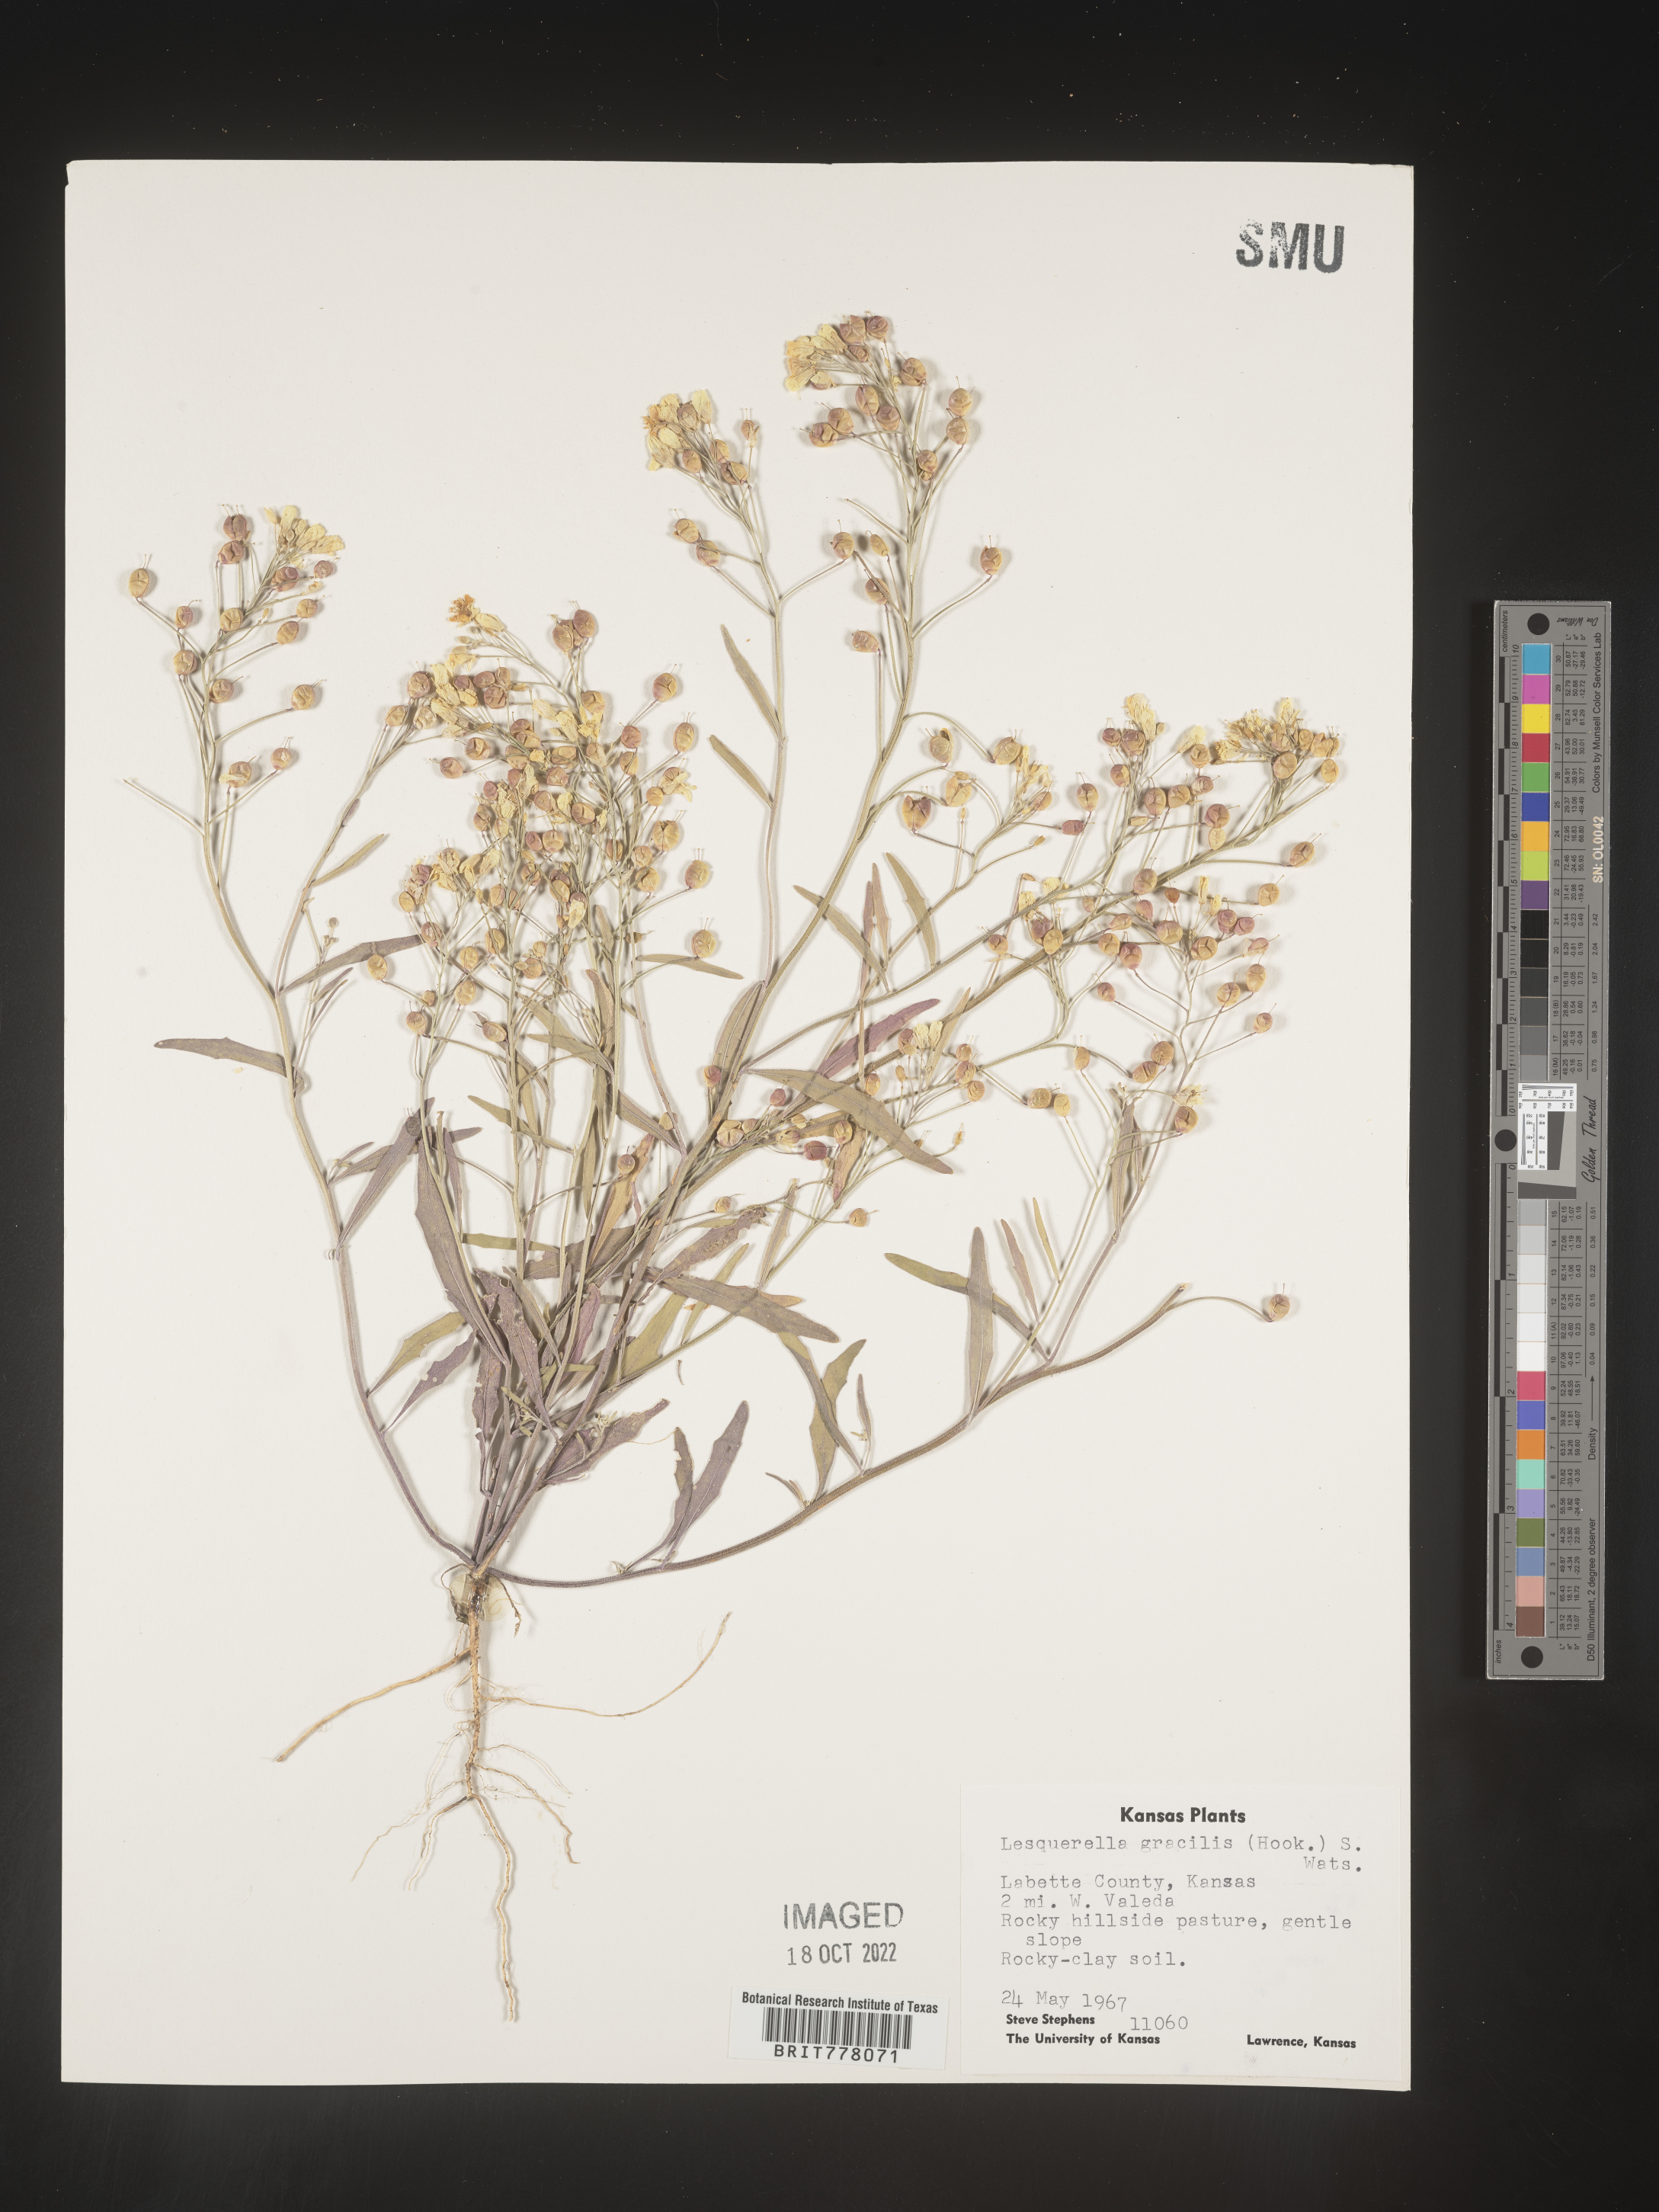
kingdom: Chromista
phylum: Cercozoa
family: Psammonobiotidae
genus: Lesquerella
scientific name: Lesquerella
